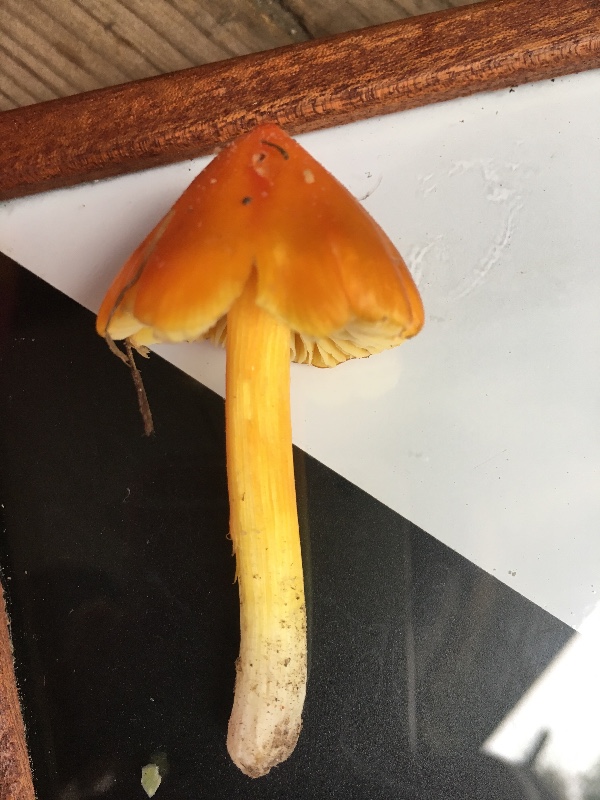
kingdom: Fungi
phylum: Basidiomycota
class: Agaricomycetes
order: Agaricales
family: Hygrophoraceae
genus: Hygrocybe
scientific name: Hygrocybe acutoconica
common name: spidspuklet vokshat
